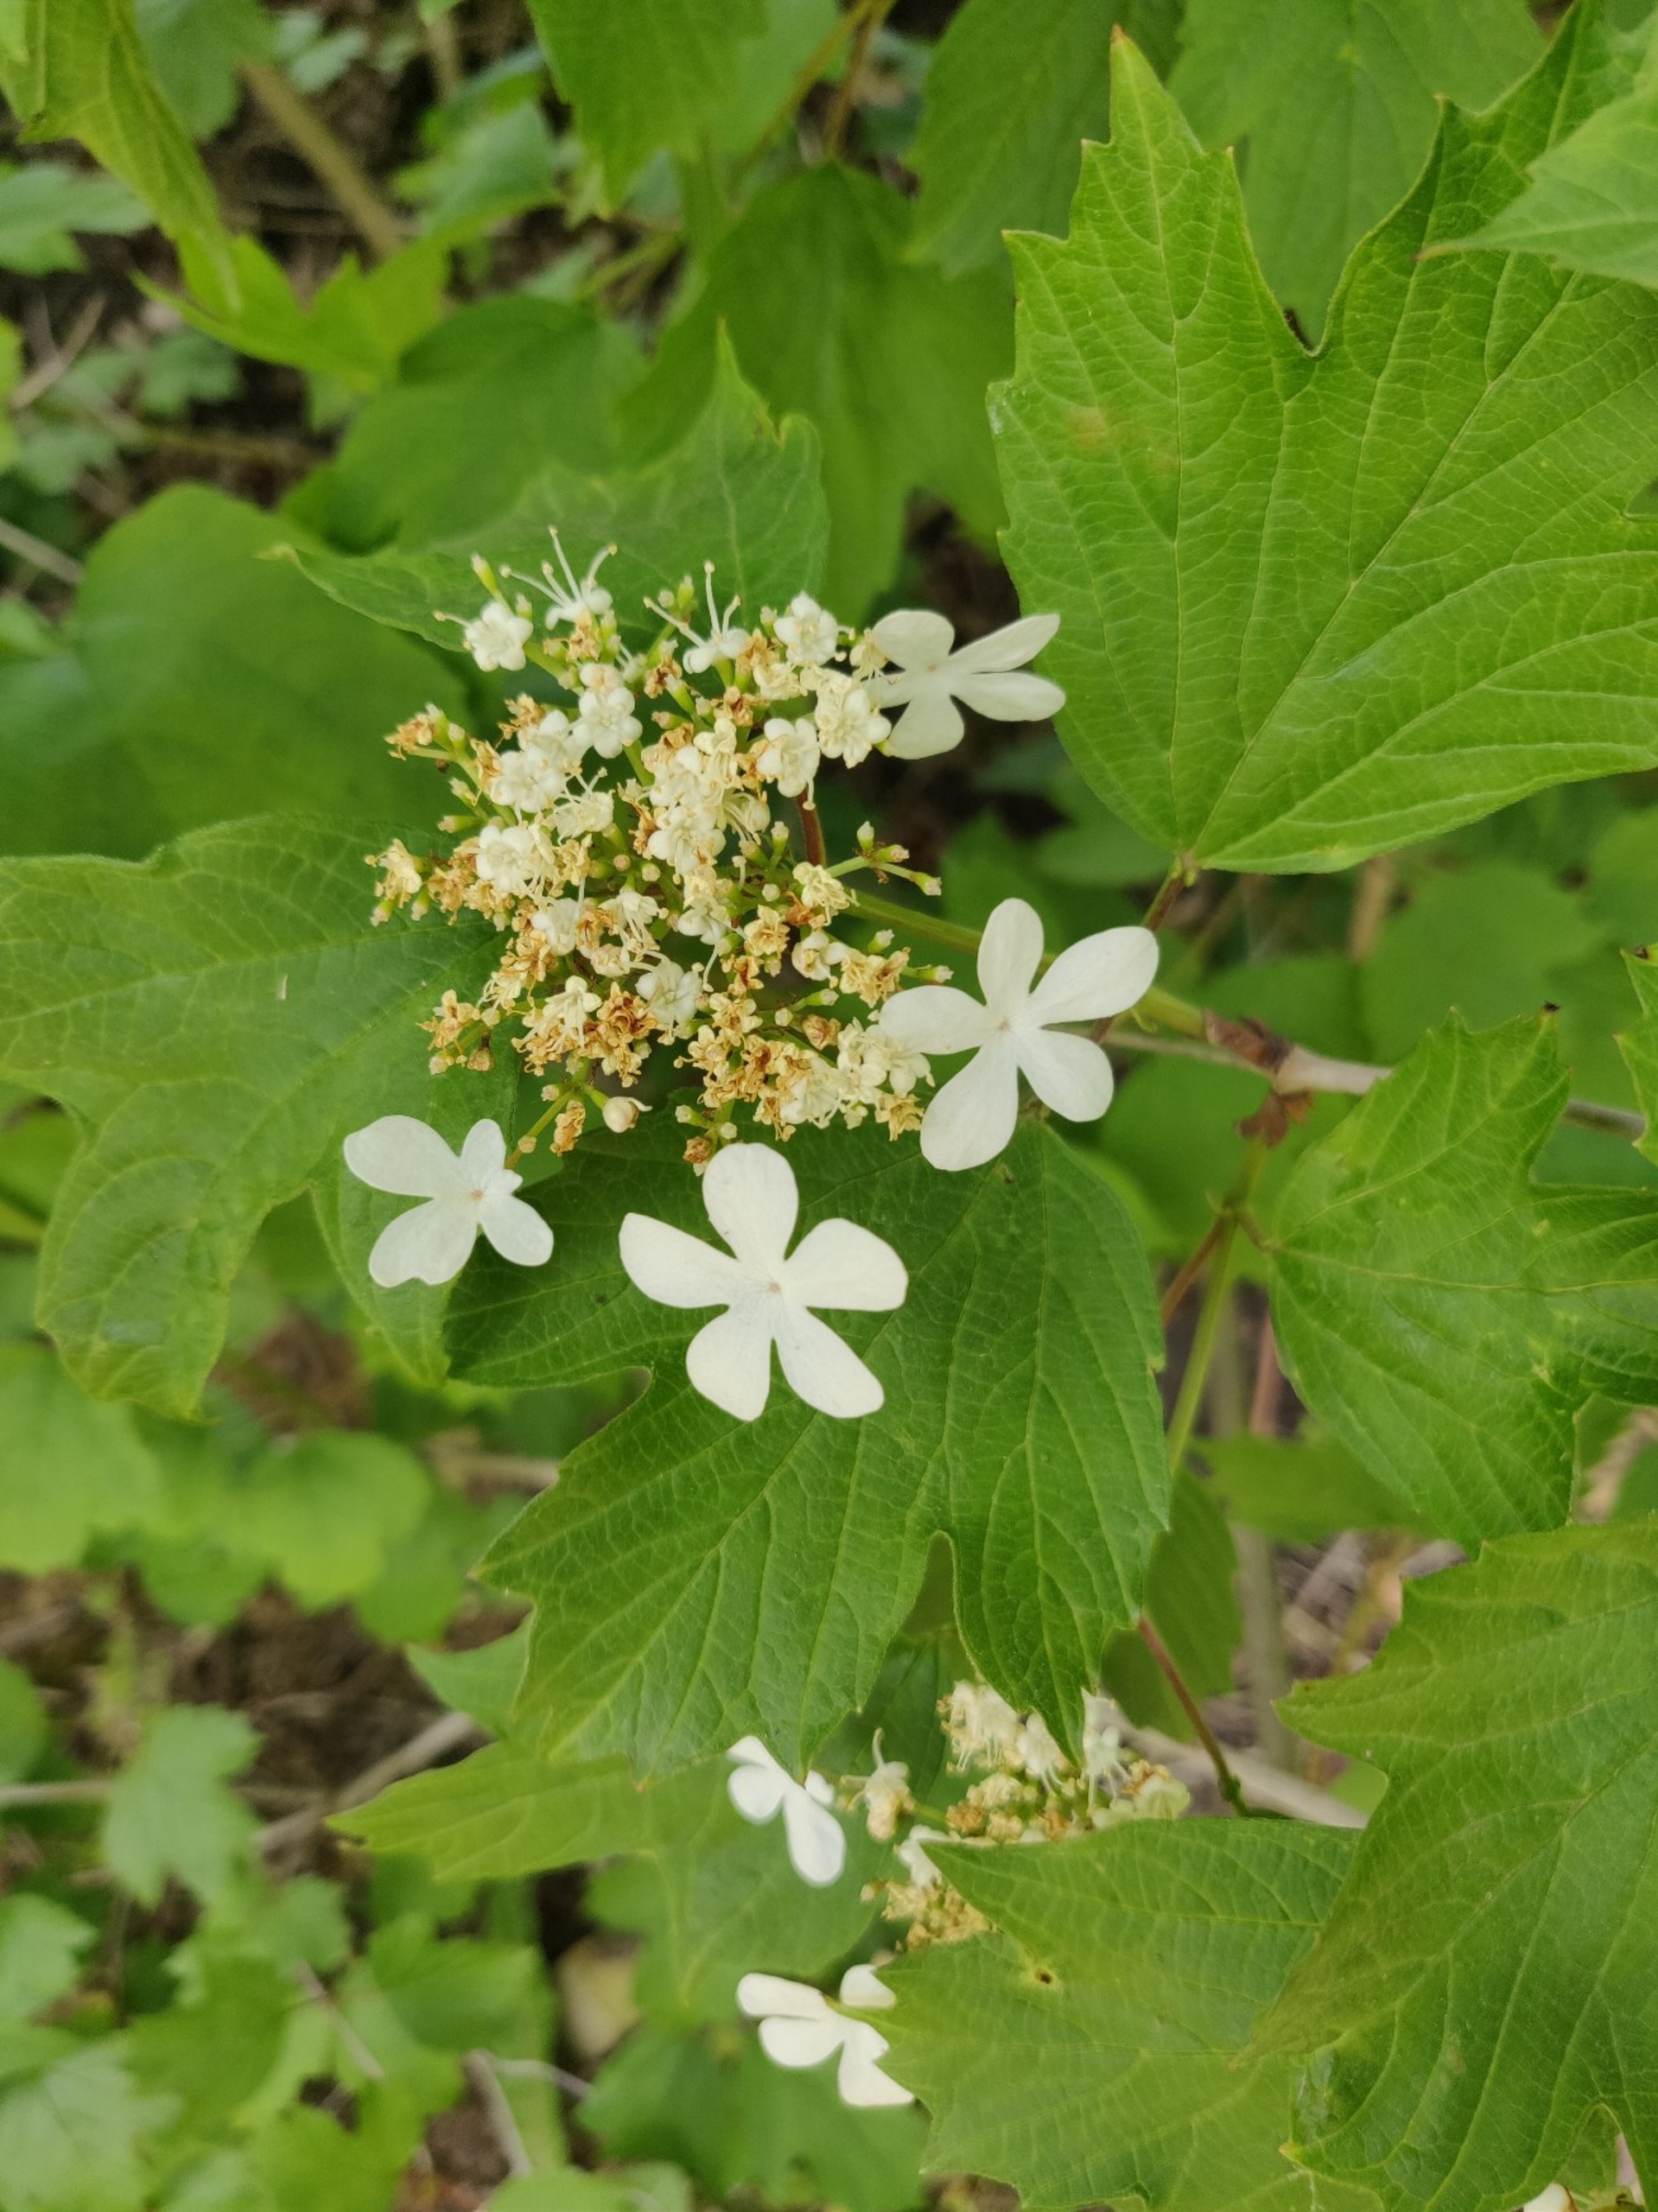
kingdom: Plantae
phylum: Tracheophyta
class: Magnoliopsida
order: Dipsacales
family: Viburnaceae
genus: Viburnum
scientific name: Viburnum opulus
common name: Kvalkved
